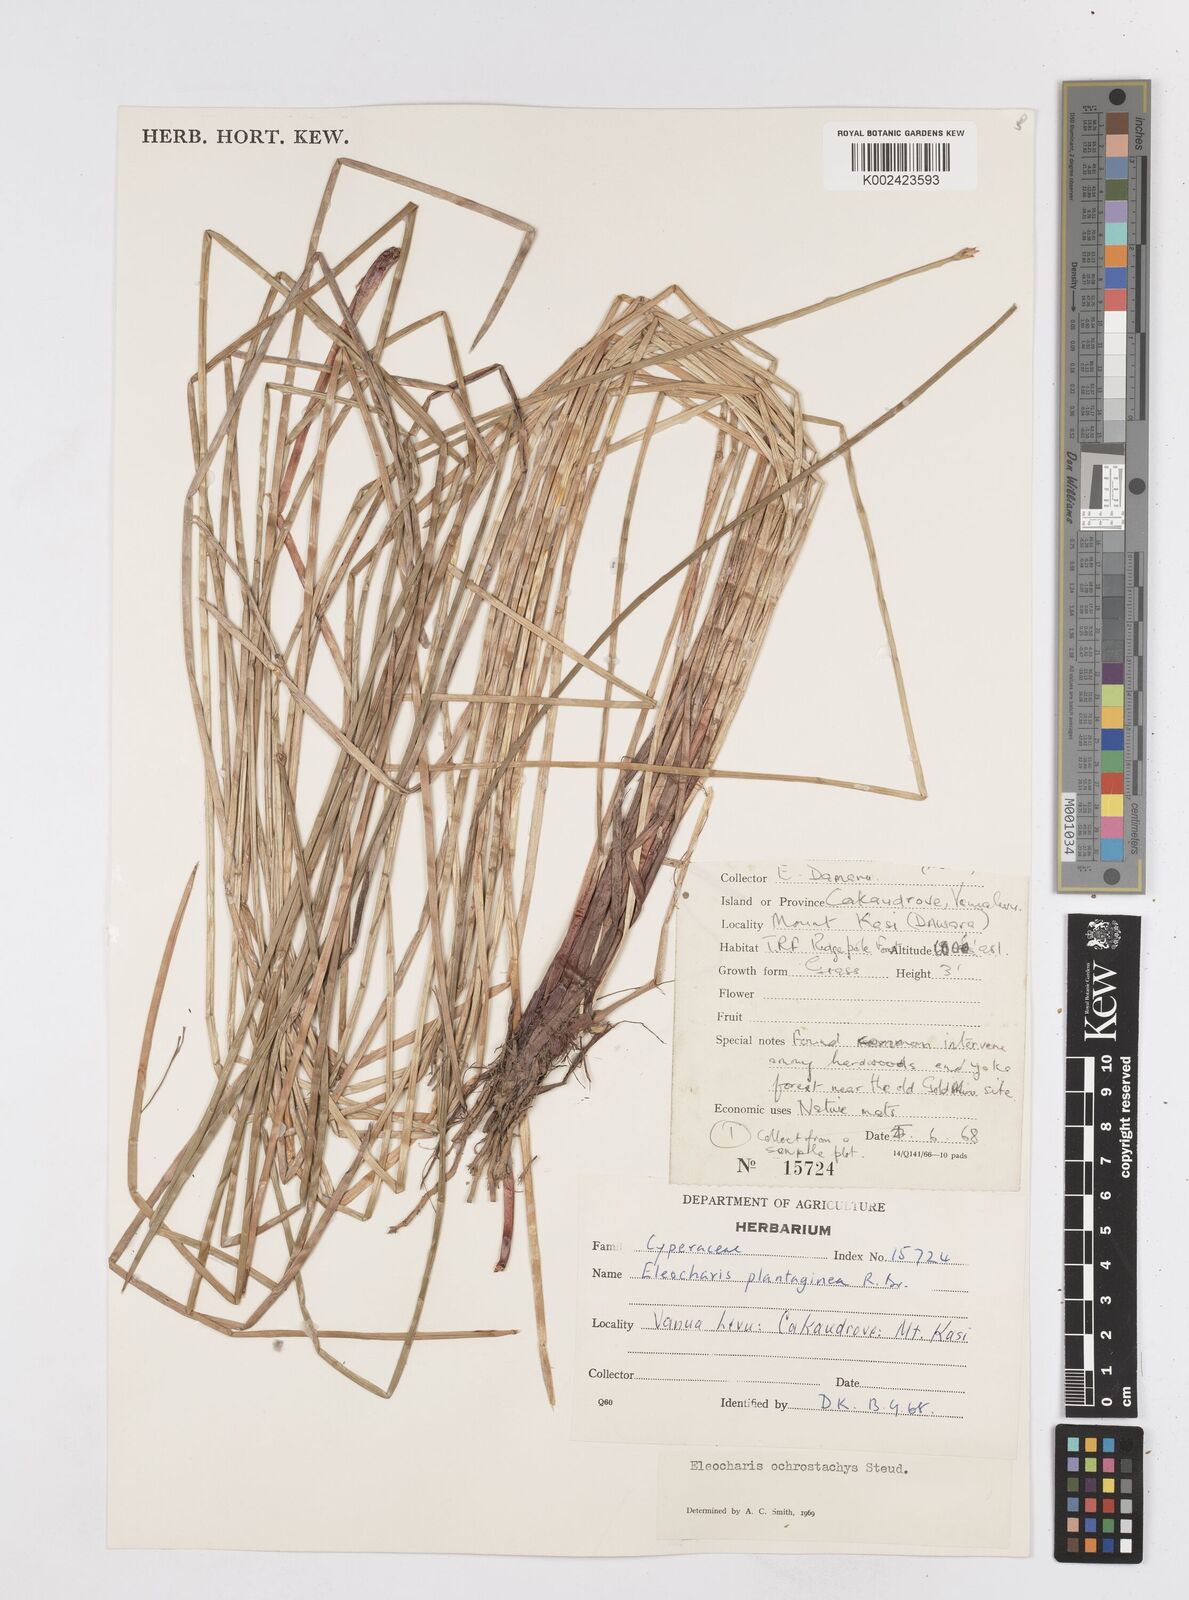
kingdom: Plantae
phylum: Tracheophyta
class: Liliopsida
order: Poales
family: Cyperaceae
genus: Eleocharis
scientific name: Eleocharis ochrostachys
